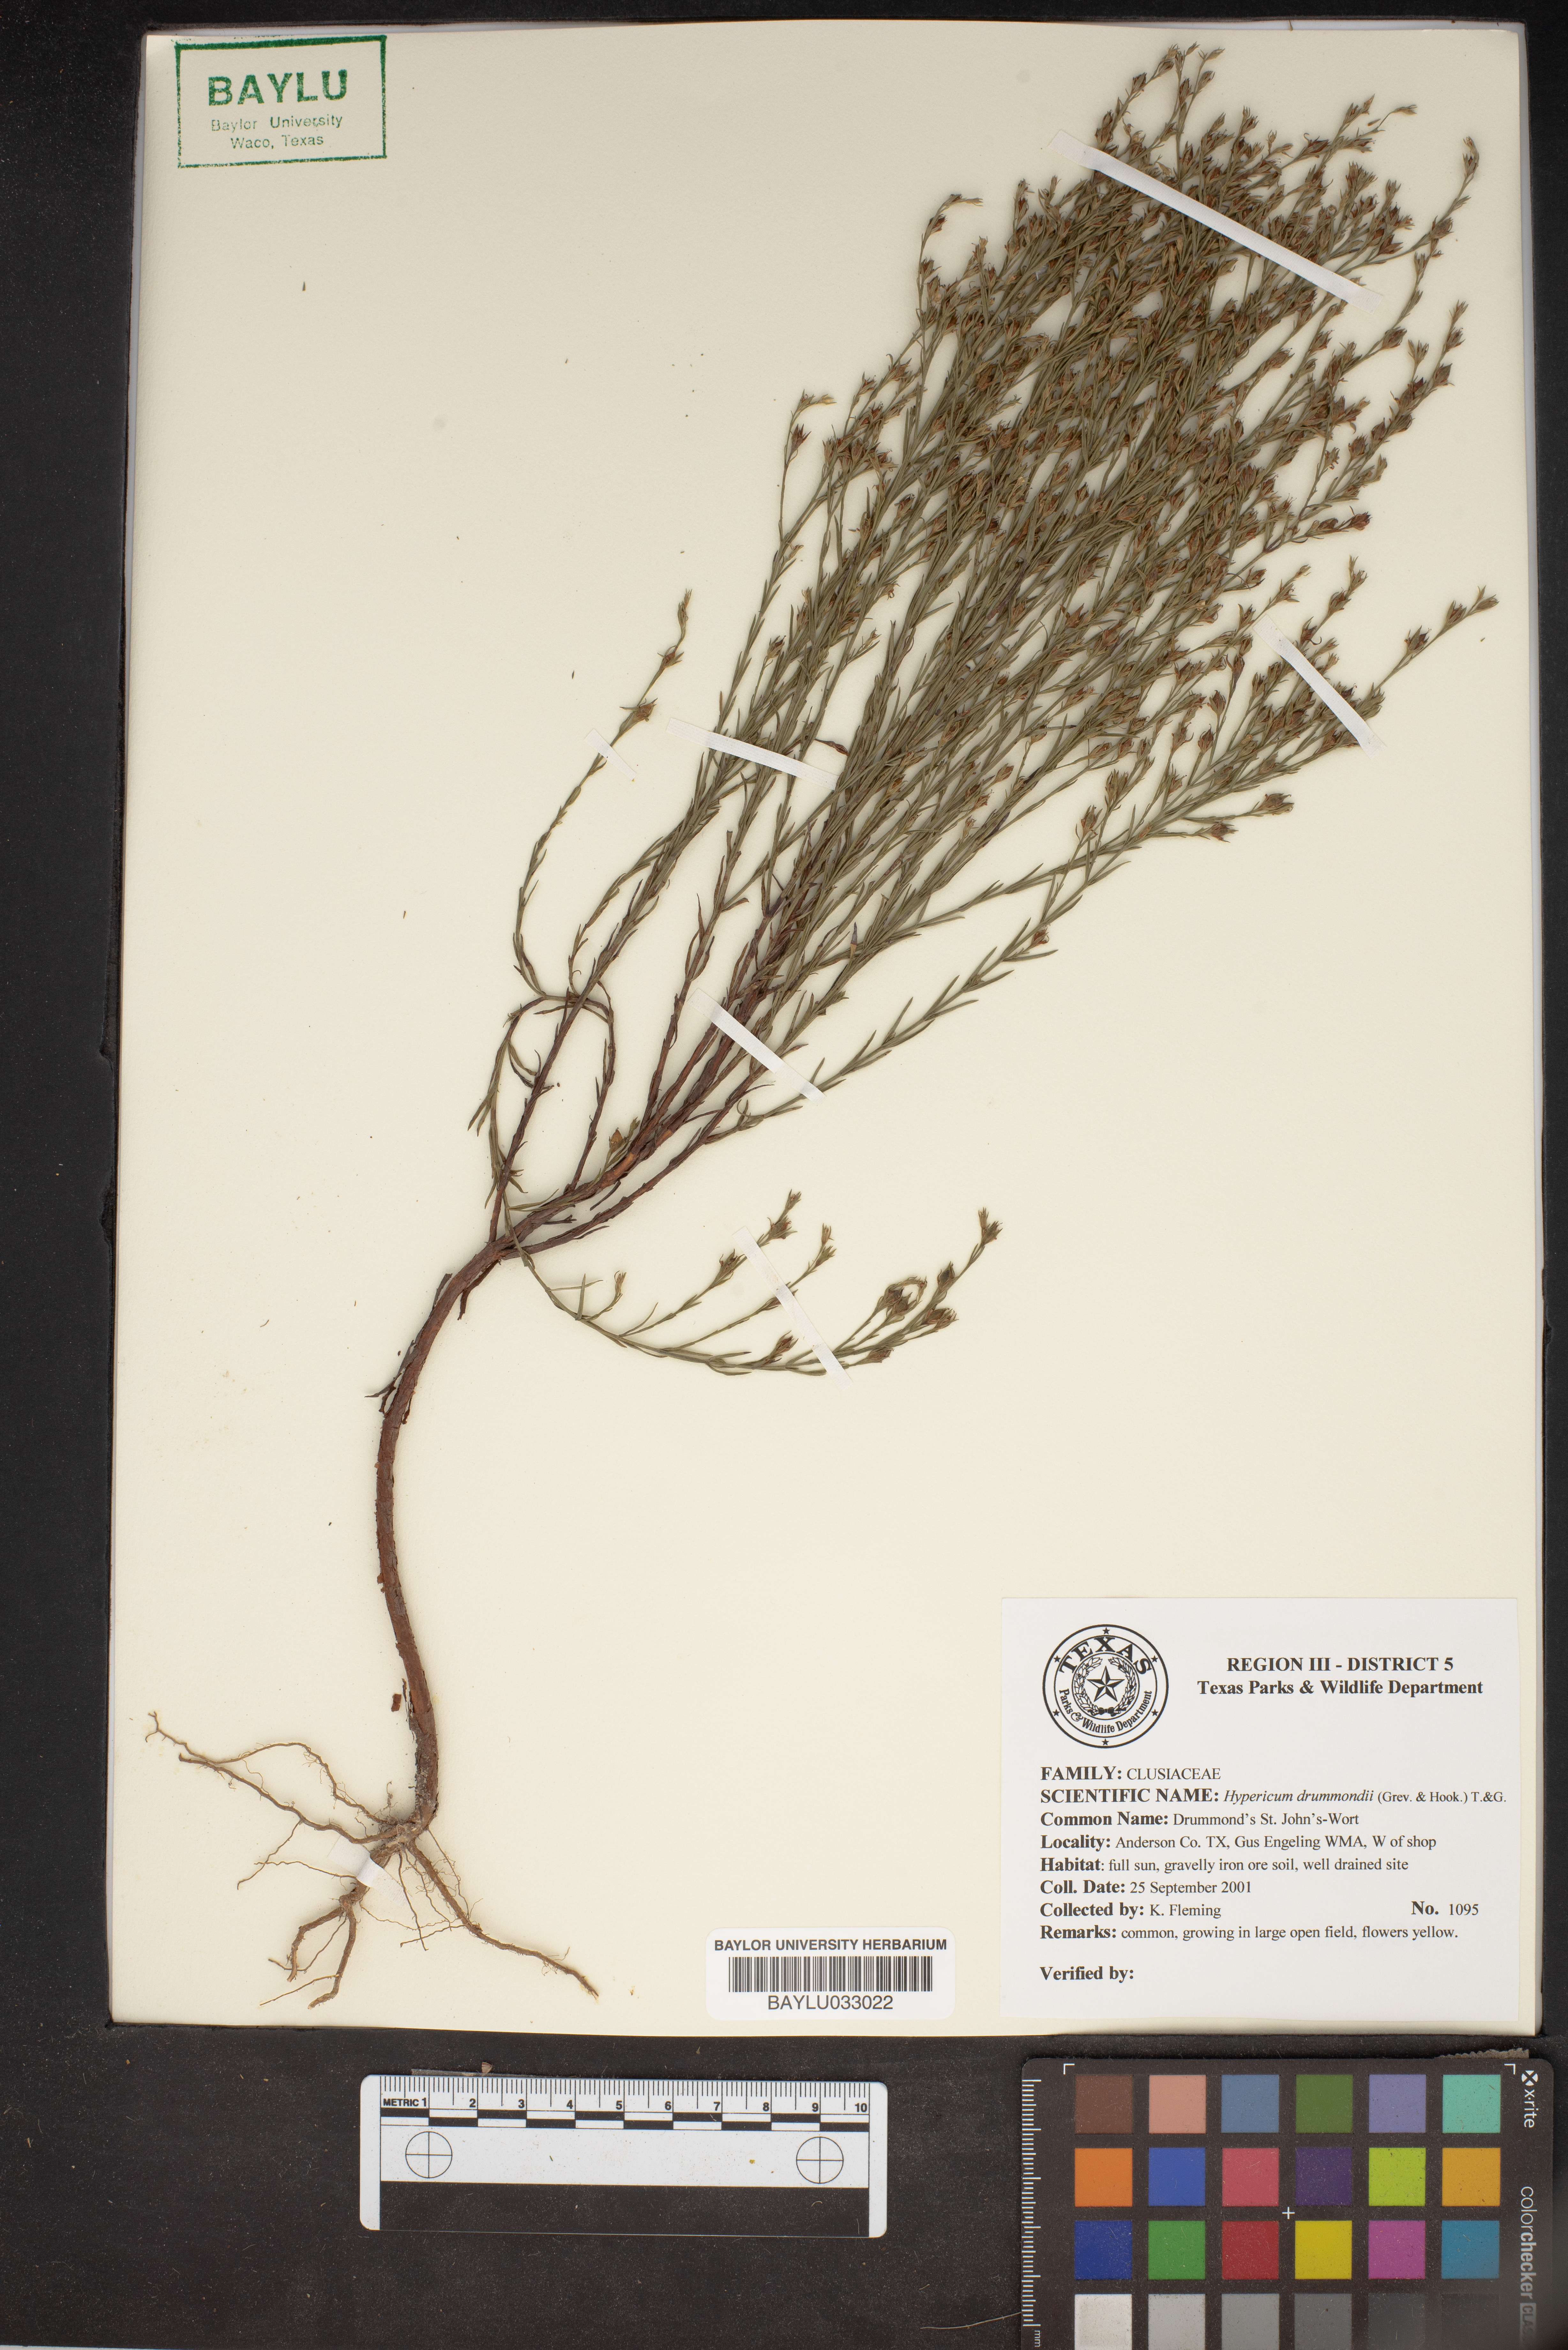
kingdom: Plantae
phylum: Tracheophyta
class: Magnoliopsida
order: Malpighiales
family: Hypericaceae
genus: Hypericum
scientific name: Hypericum drummondii
